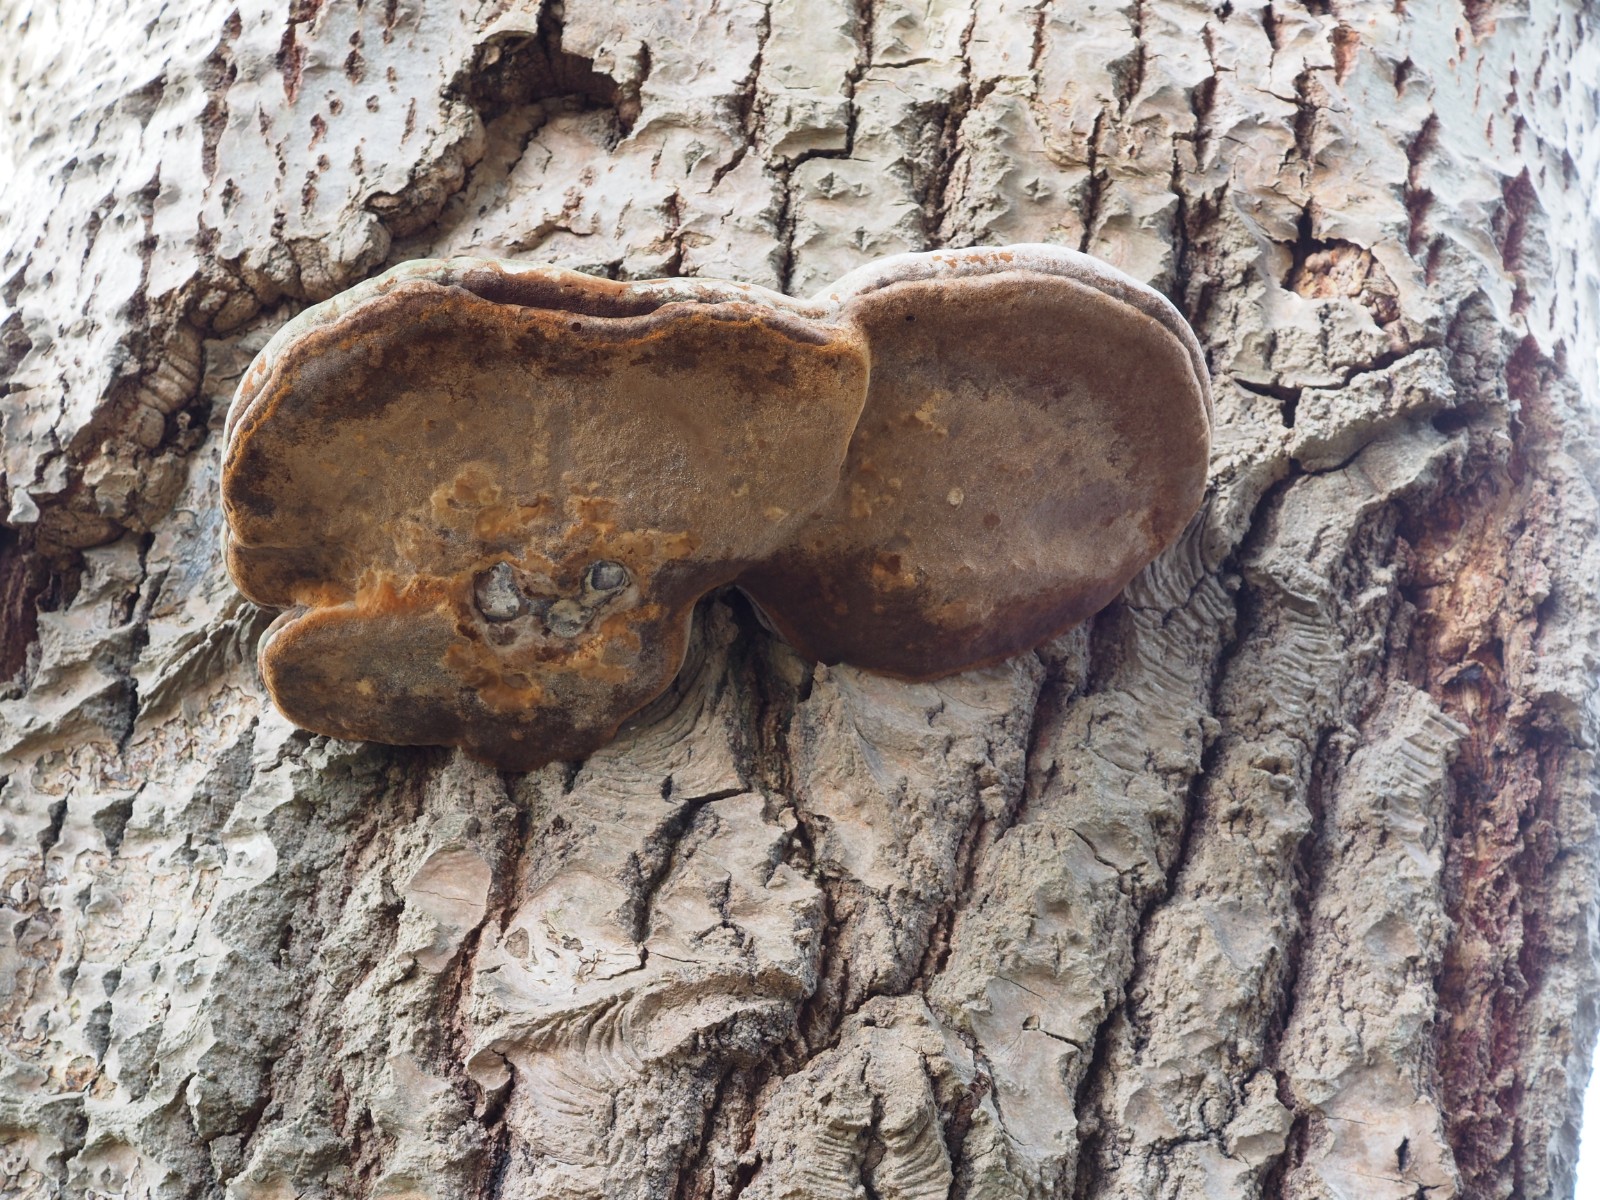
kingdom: Fungi
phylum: Basidiomycota
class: Agaricomycetes
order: Hymenochaetales
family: Hymenochaetaceae
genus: Phellinus
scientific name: Phellinus populicola
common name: poppel-ildporesvamp
